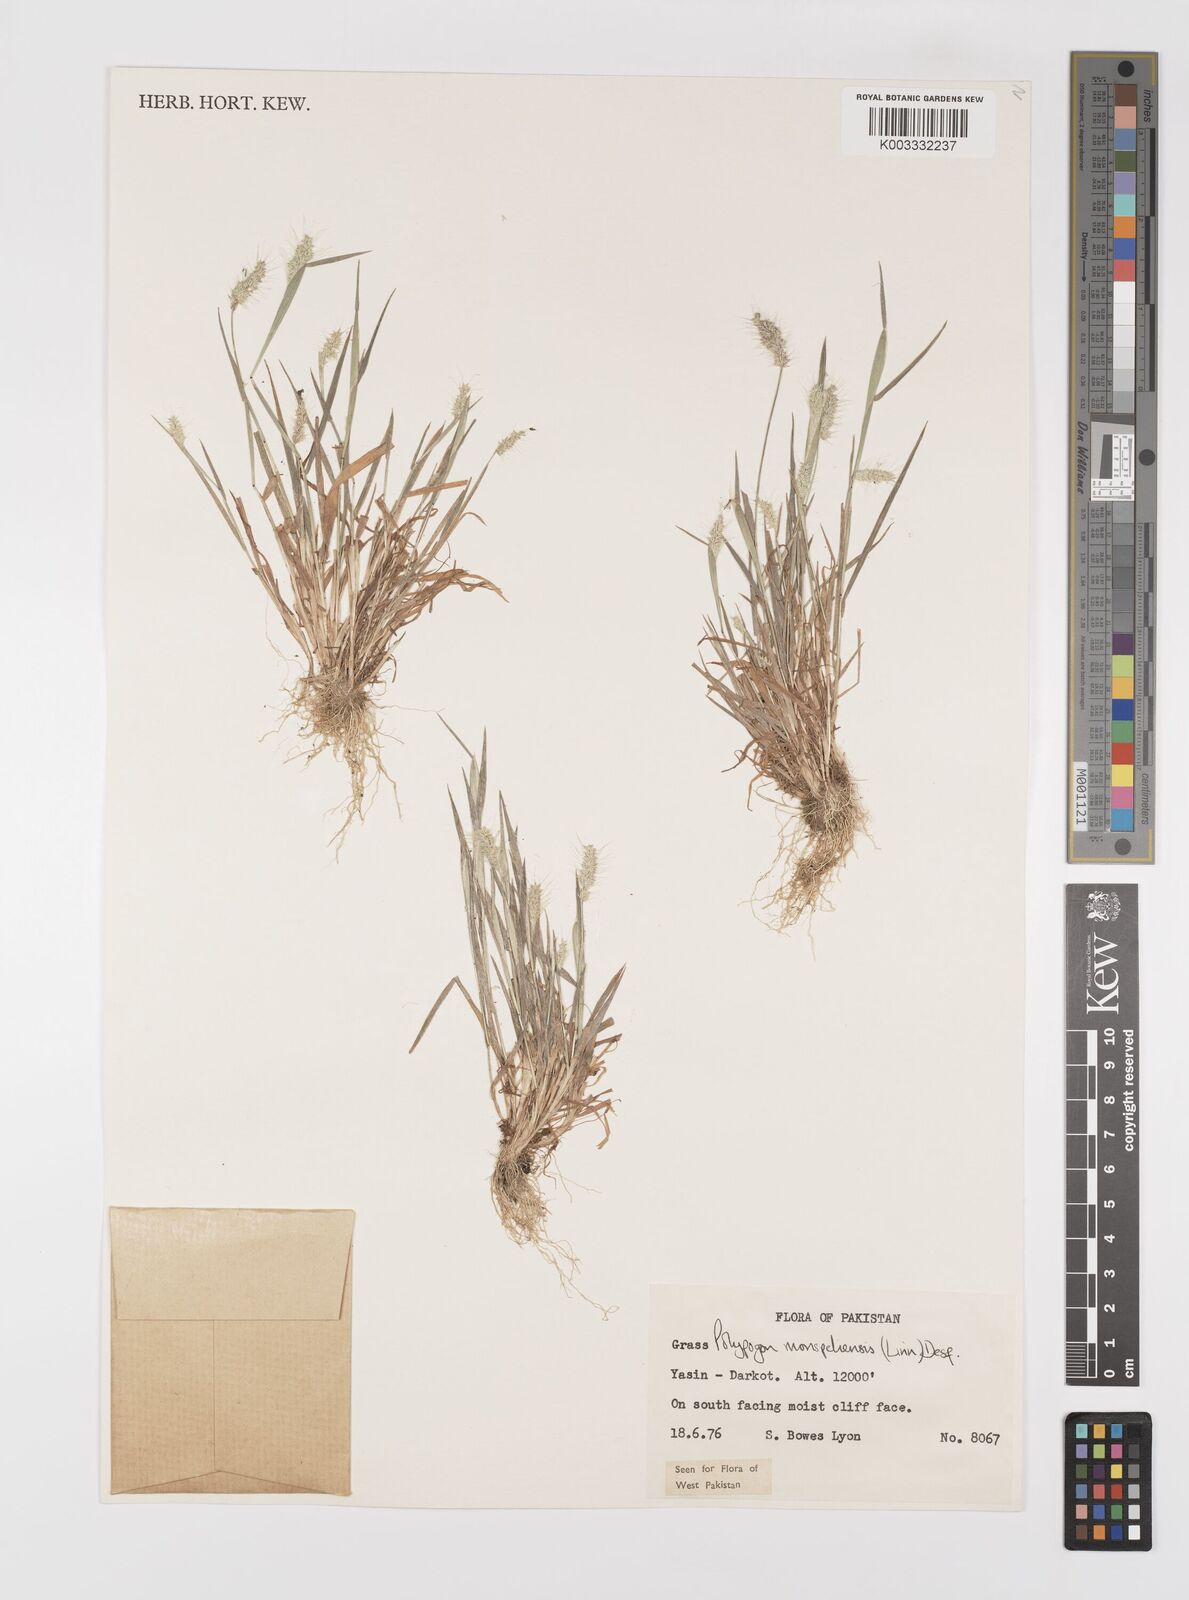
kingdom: Plantae
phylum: Tracheophyta
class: Liliopsida
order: Poales
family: Poaceae
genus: Polypogon
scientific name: Polypogon monspeliensis
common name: Annual rabbitsfoot grass
